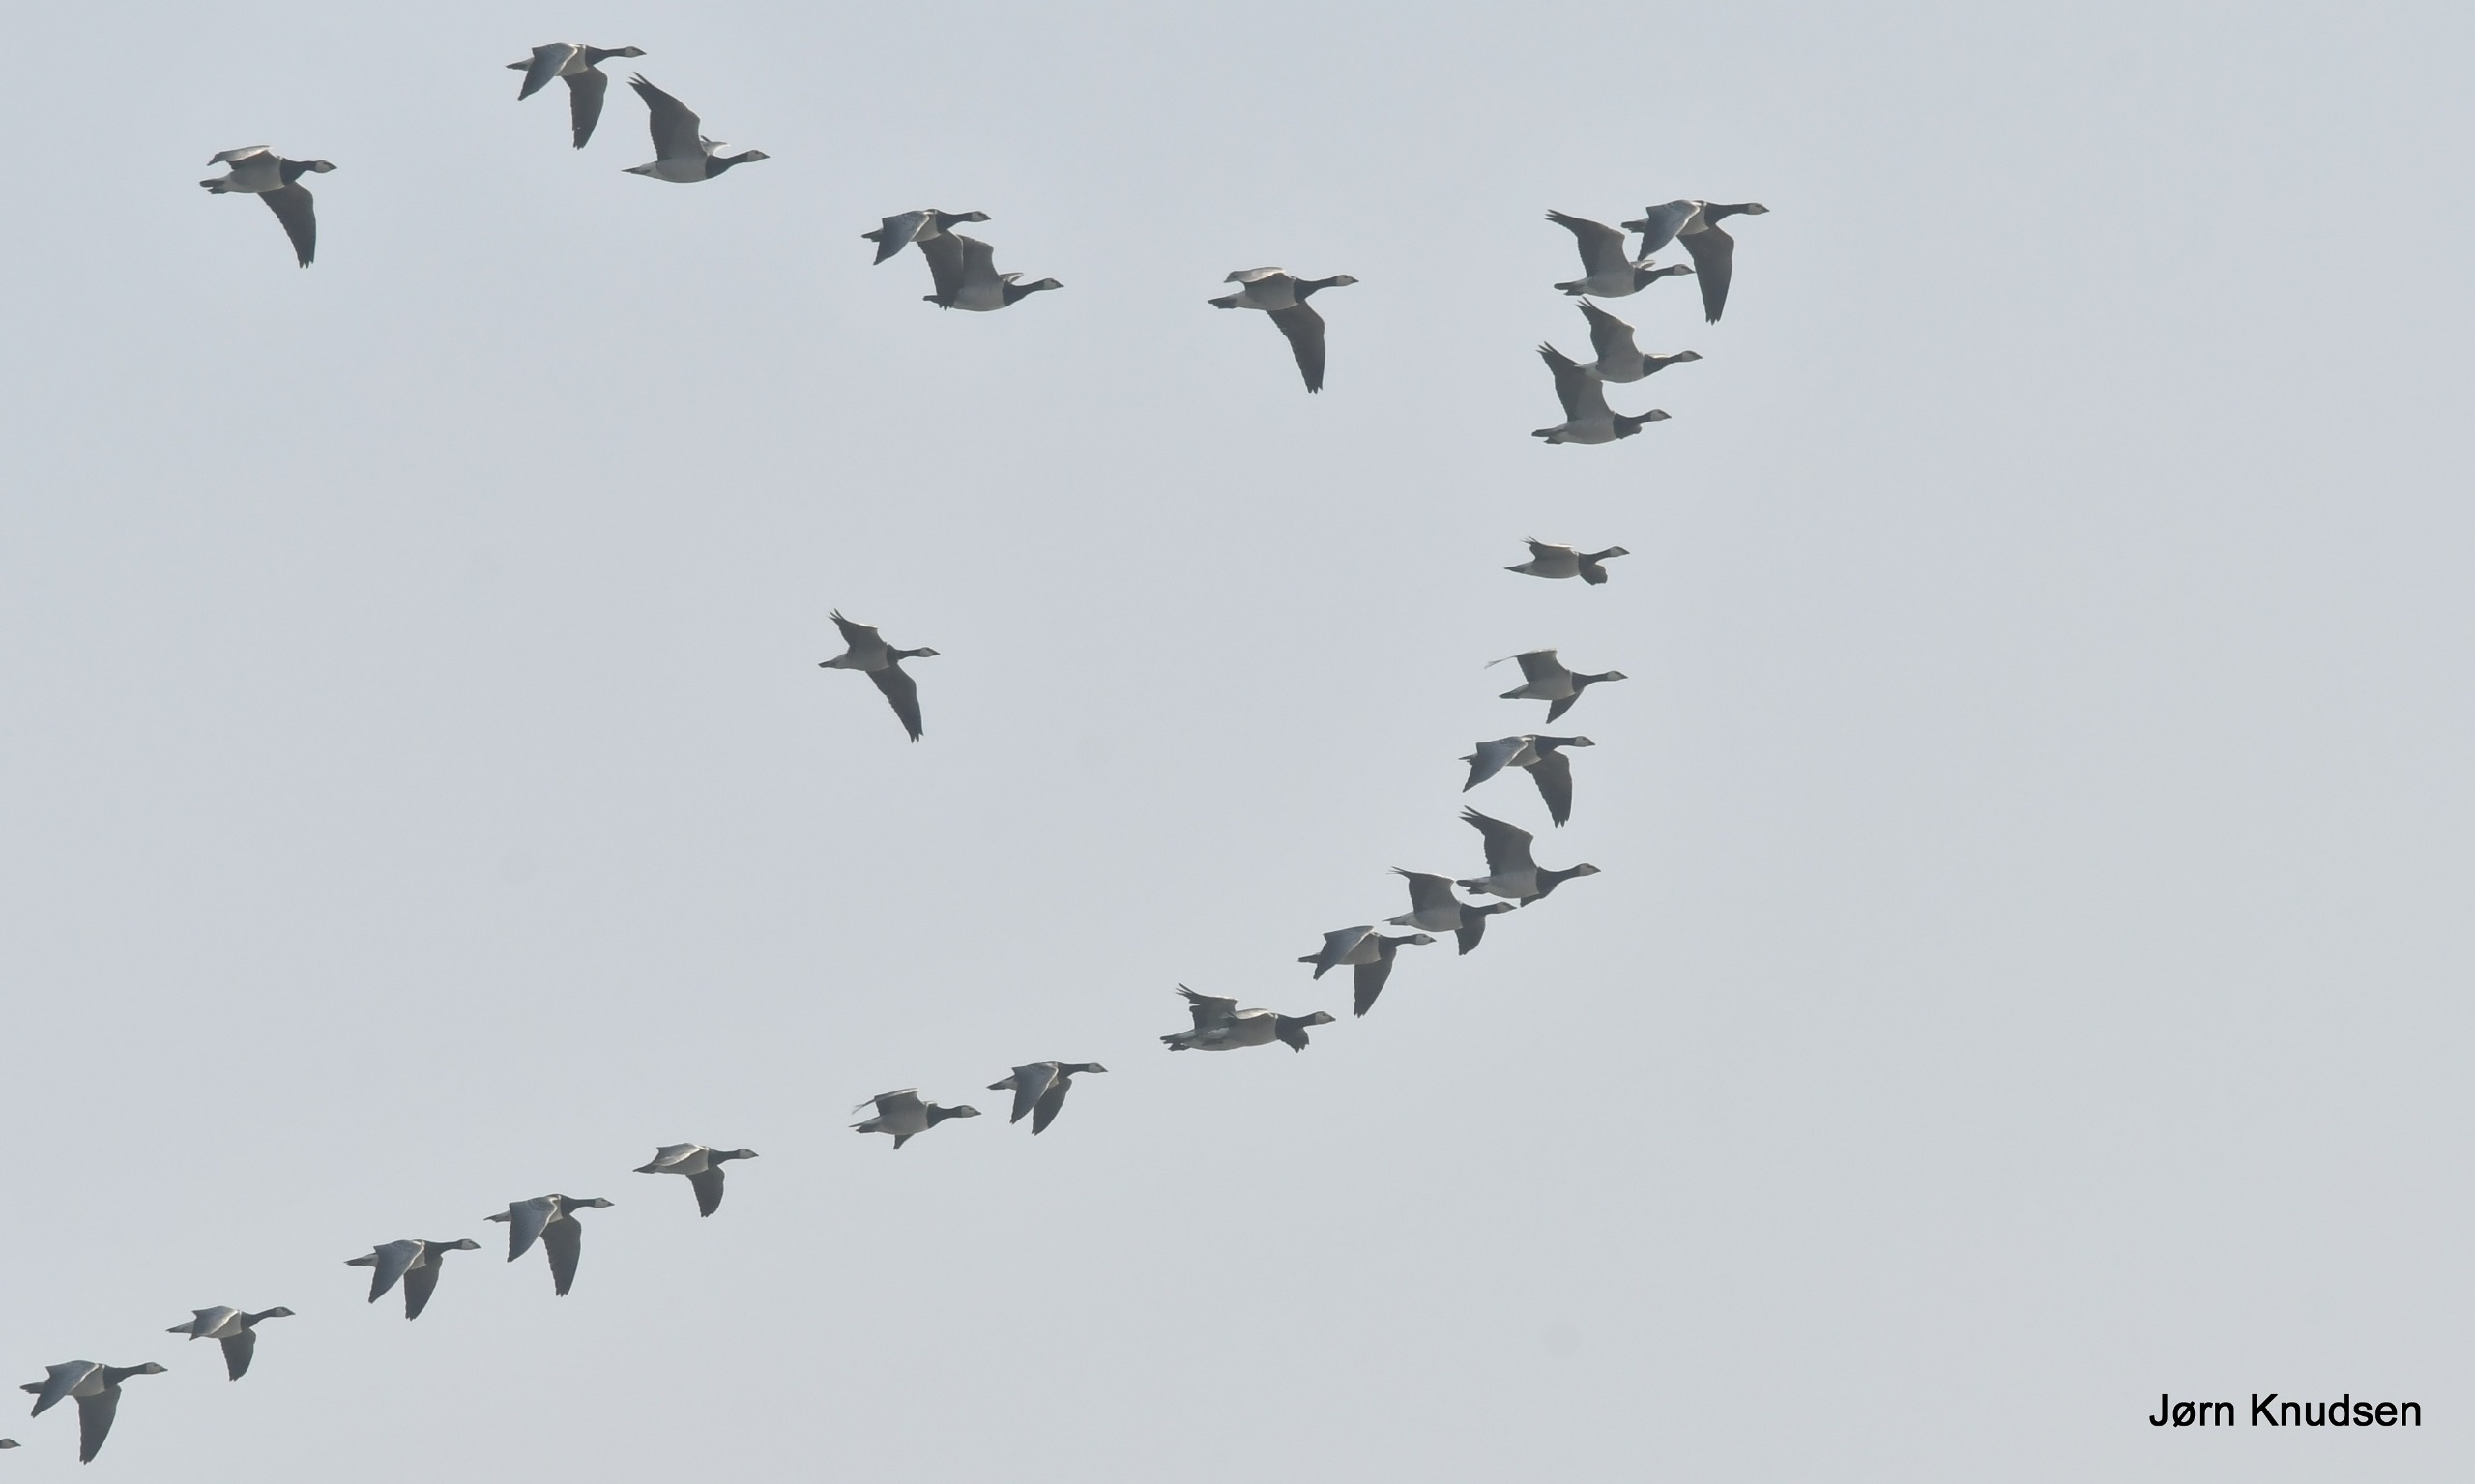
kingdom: Animalia
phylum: Chordata
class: Aves
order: Anseriformes
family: Anatidae
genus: Branta
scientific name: Branta leucopsis
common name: Bramgås
